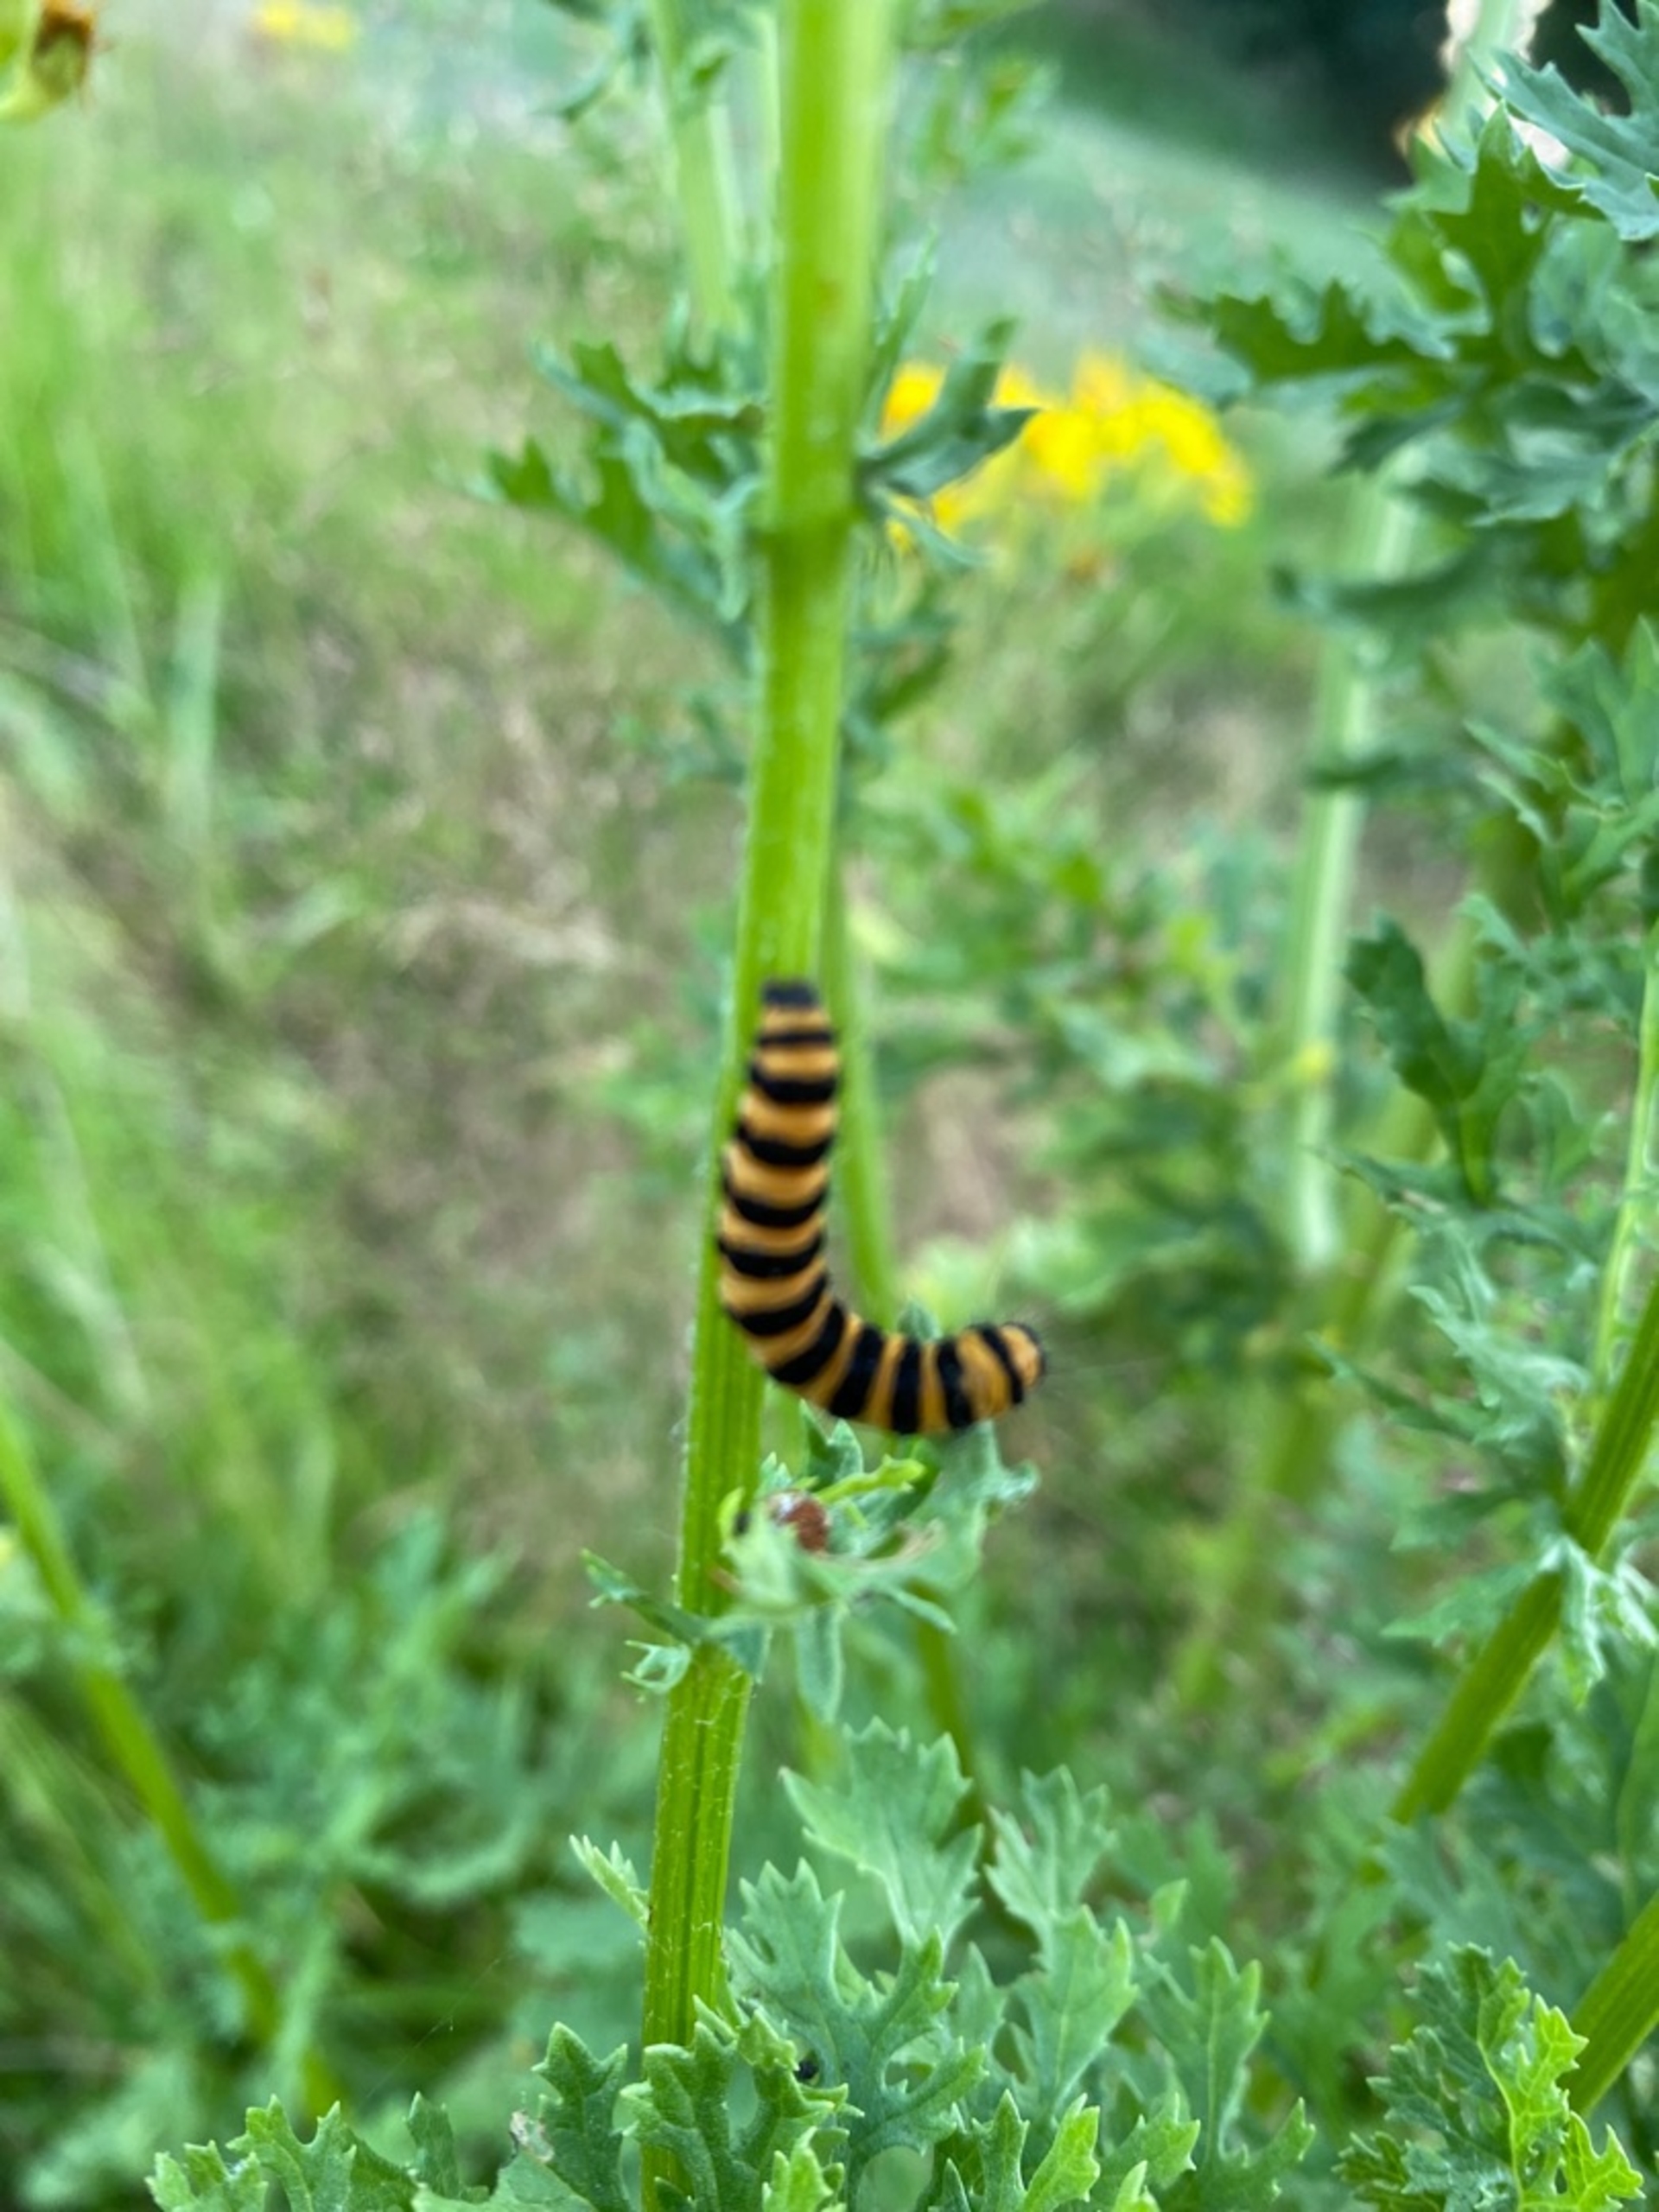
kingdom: Animalia
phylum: Arthropoda
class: Insecta
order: Lepidoptera
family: Erebidae
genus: Tyria
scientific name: Tyria jacobaeae
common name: Blodplet
